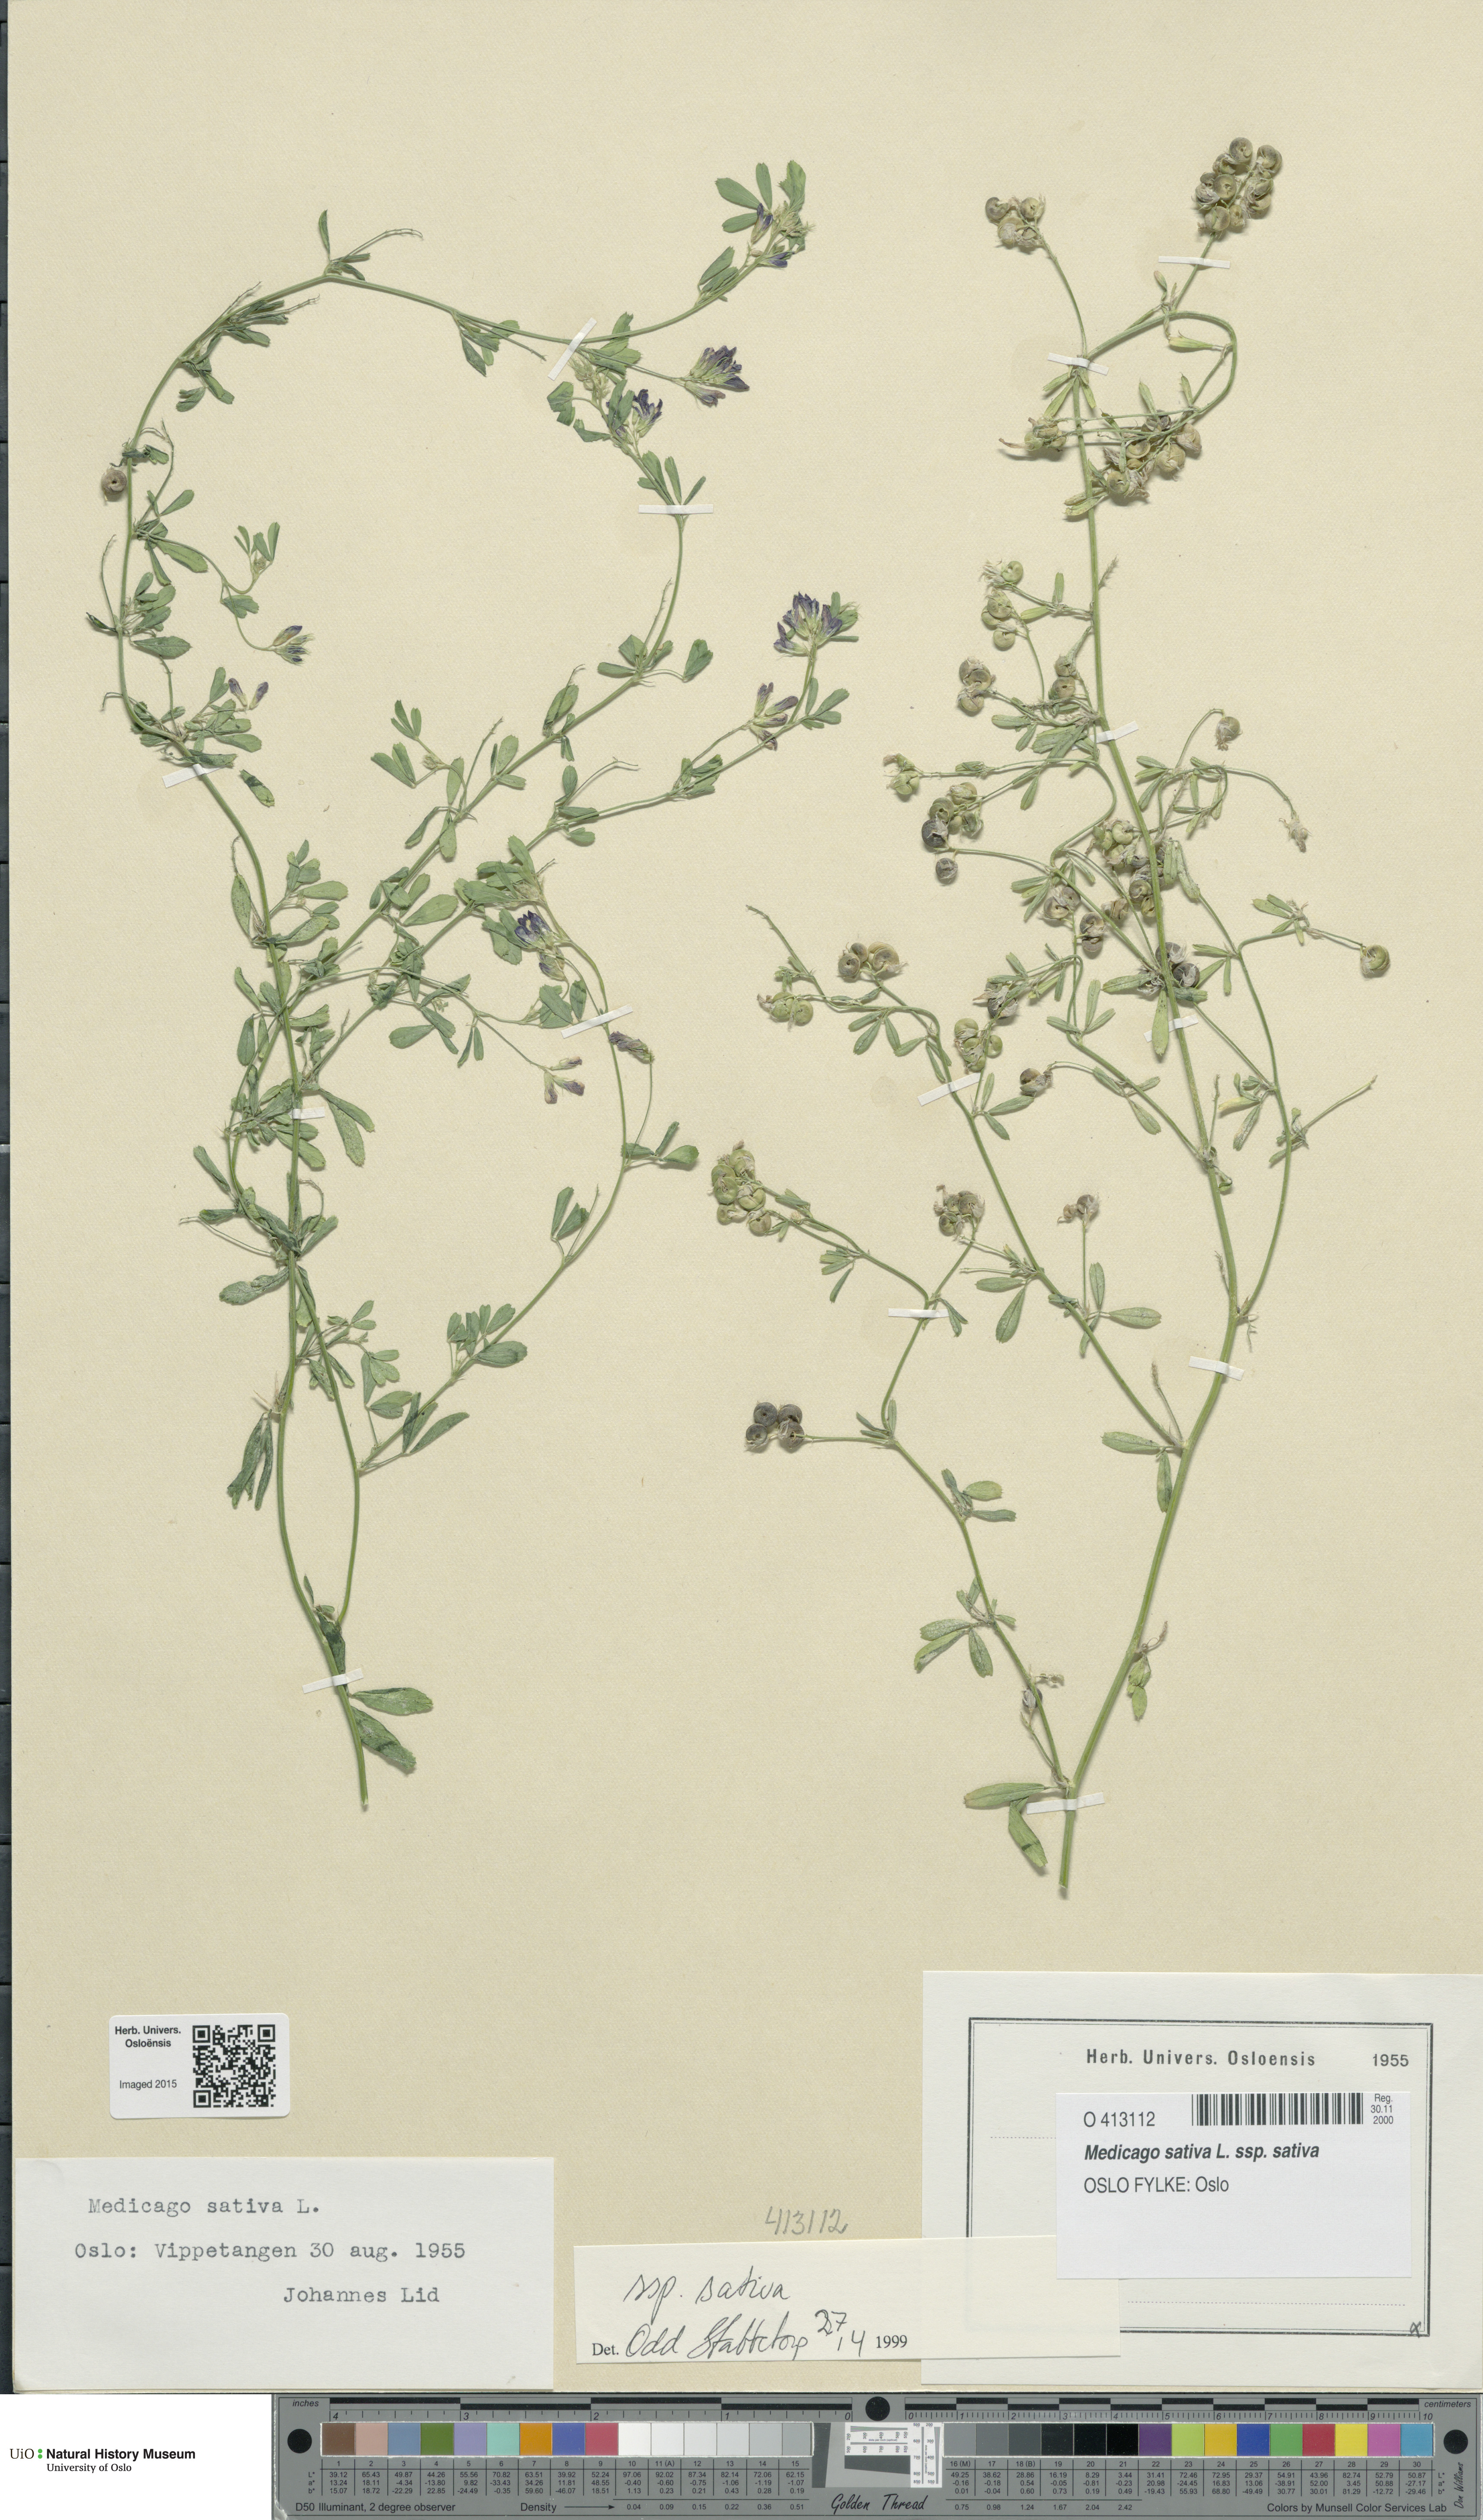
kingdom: Plantae
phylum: Tracheophyta
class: Magnoliopsida
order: Fabales
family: Fabaceae
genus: Medicago
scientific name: Medicago sativa
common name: Alfalfa
